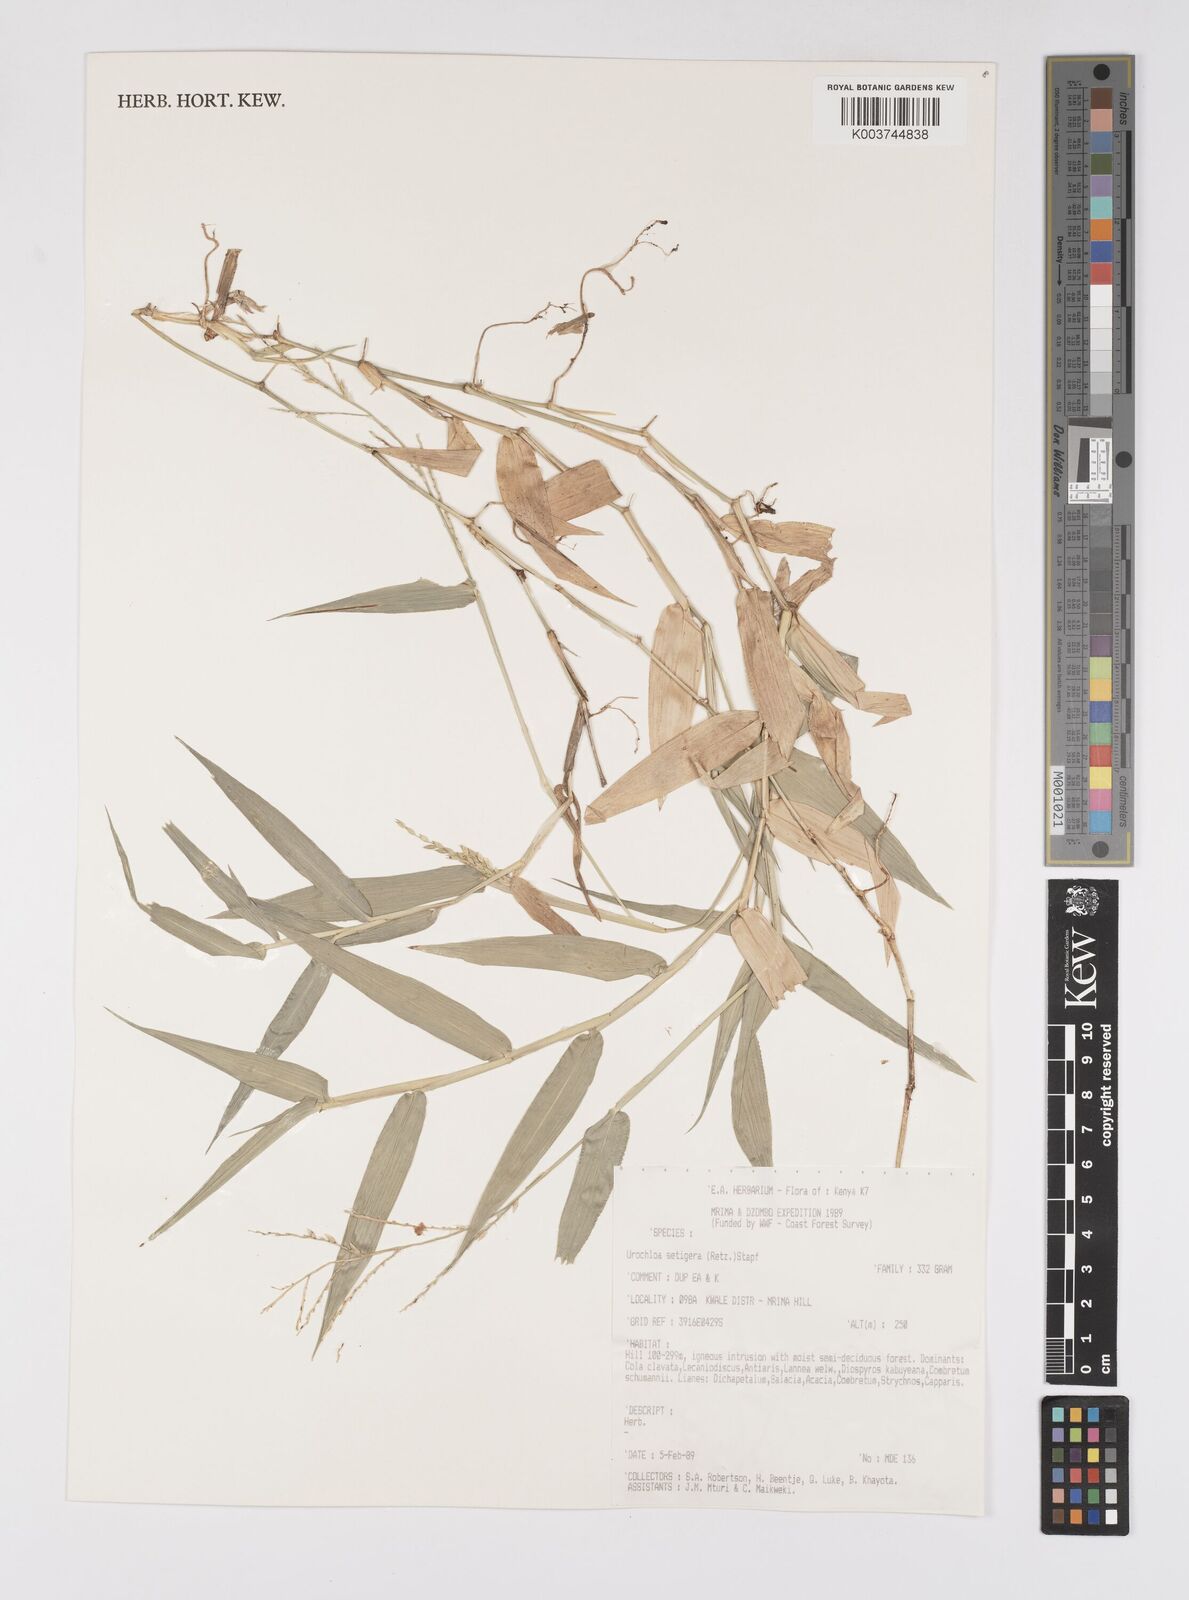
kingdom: Plantae
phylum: Tracheophyta
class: Liliopsida
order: Poales
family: Poaceae
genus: Urochloa
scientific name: Urochloa trichopodioides
